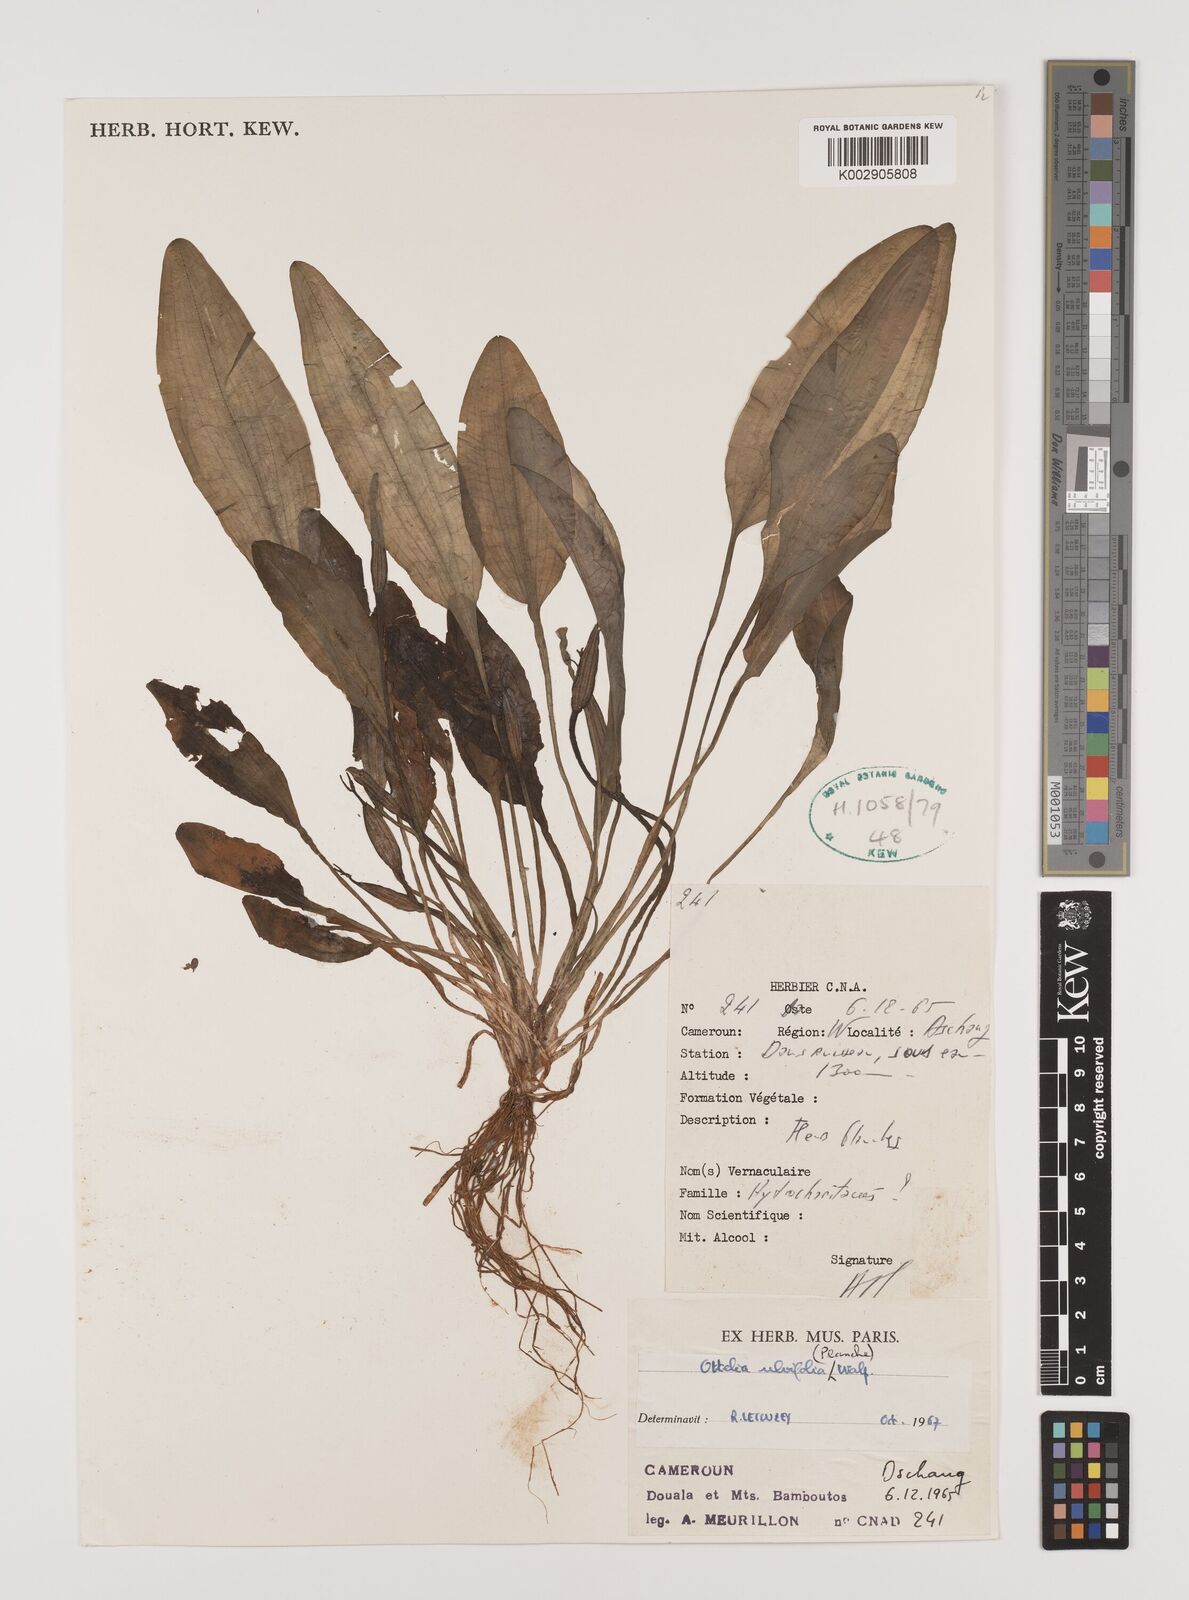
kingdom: Plantae
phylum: Tracheophyta
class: Liliopsida
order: Alismatales
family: Hydrocharitaceae
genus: Ottelia
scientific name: Ottelia ulvifolia
